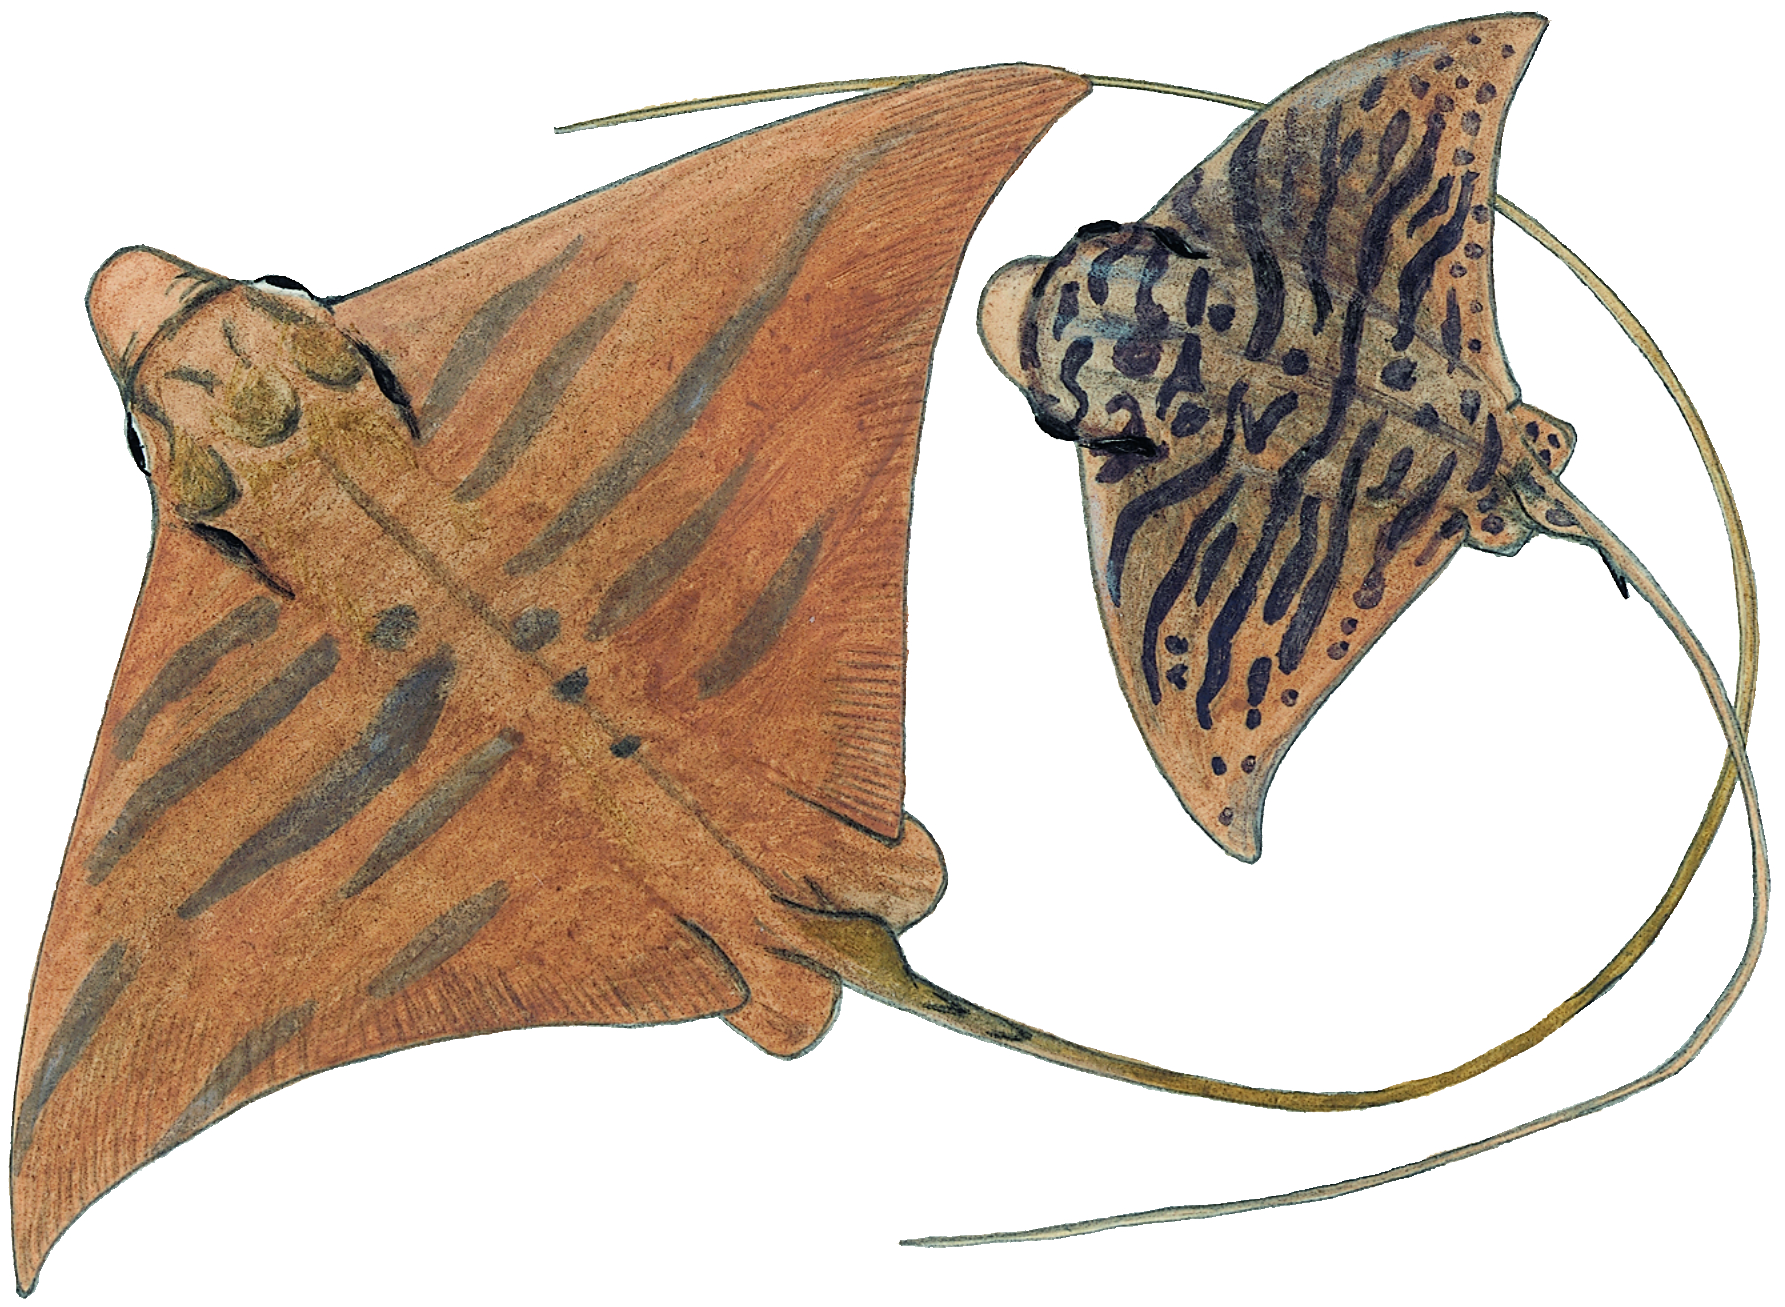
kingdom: Animalia
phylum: Chordata
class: Elasmobranchii
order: Myliobatiformes
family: Myliobatidae
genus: Aetomylaeus
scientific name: Aetomylaeus bovinus
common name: Bull ray
